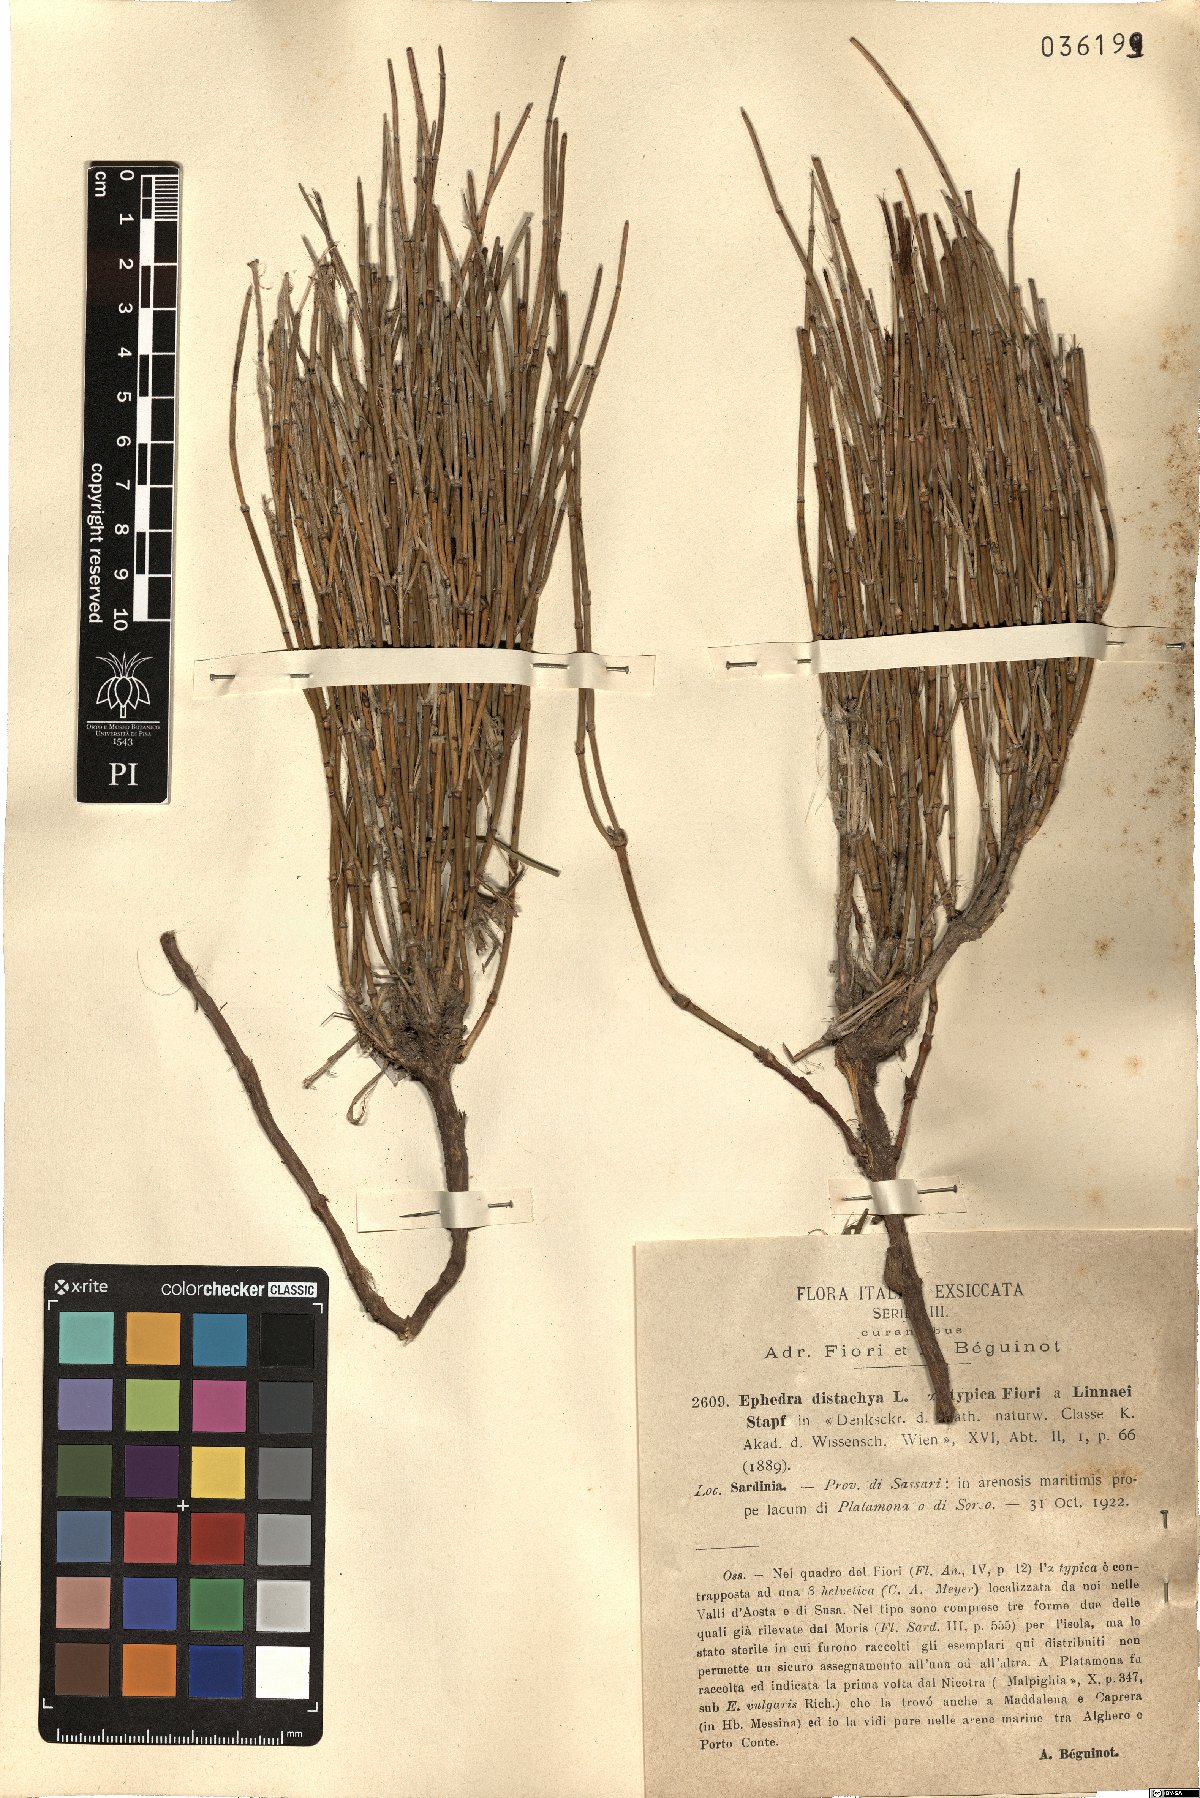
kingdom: Plantae
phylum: Tracheophyta
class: Gnetopsida
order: Ephedrales
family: Ephedraceae
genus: Ephedra
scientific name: Ephedra distachya
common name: Sea grape
